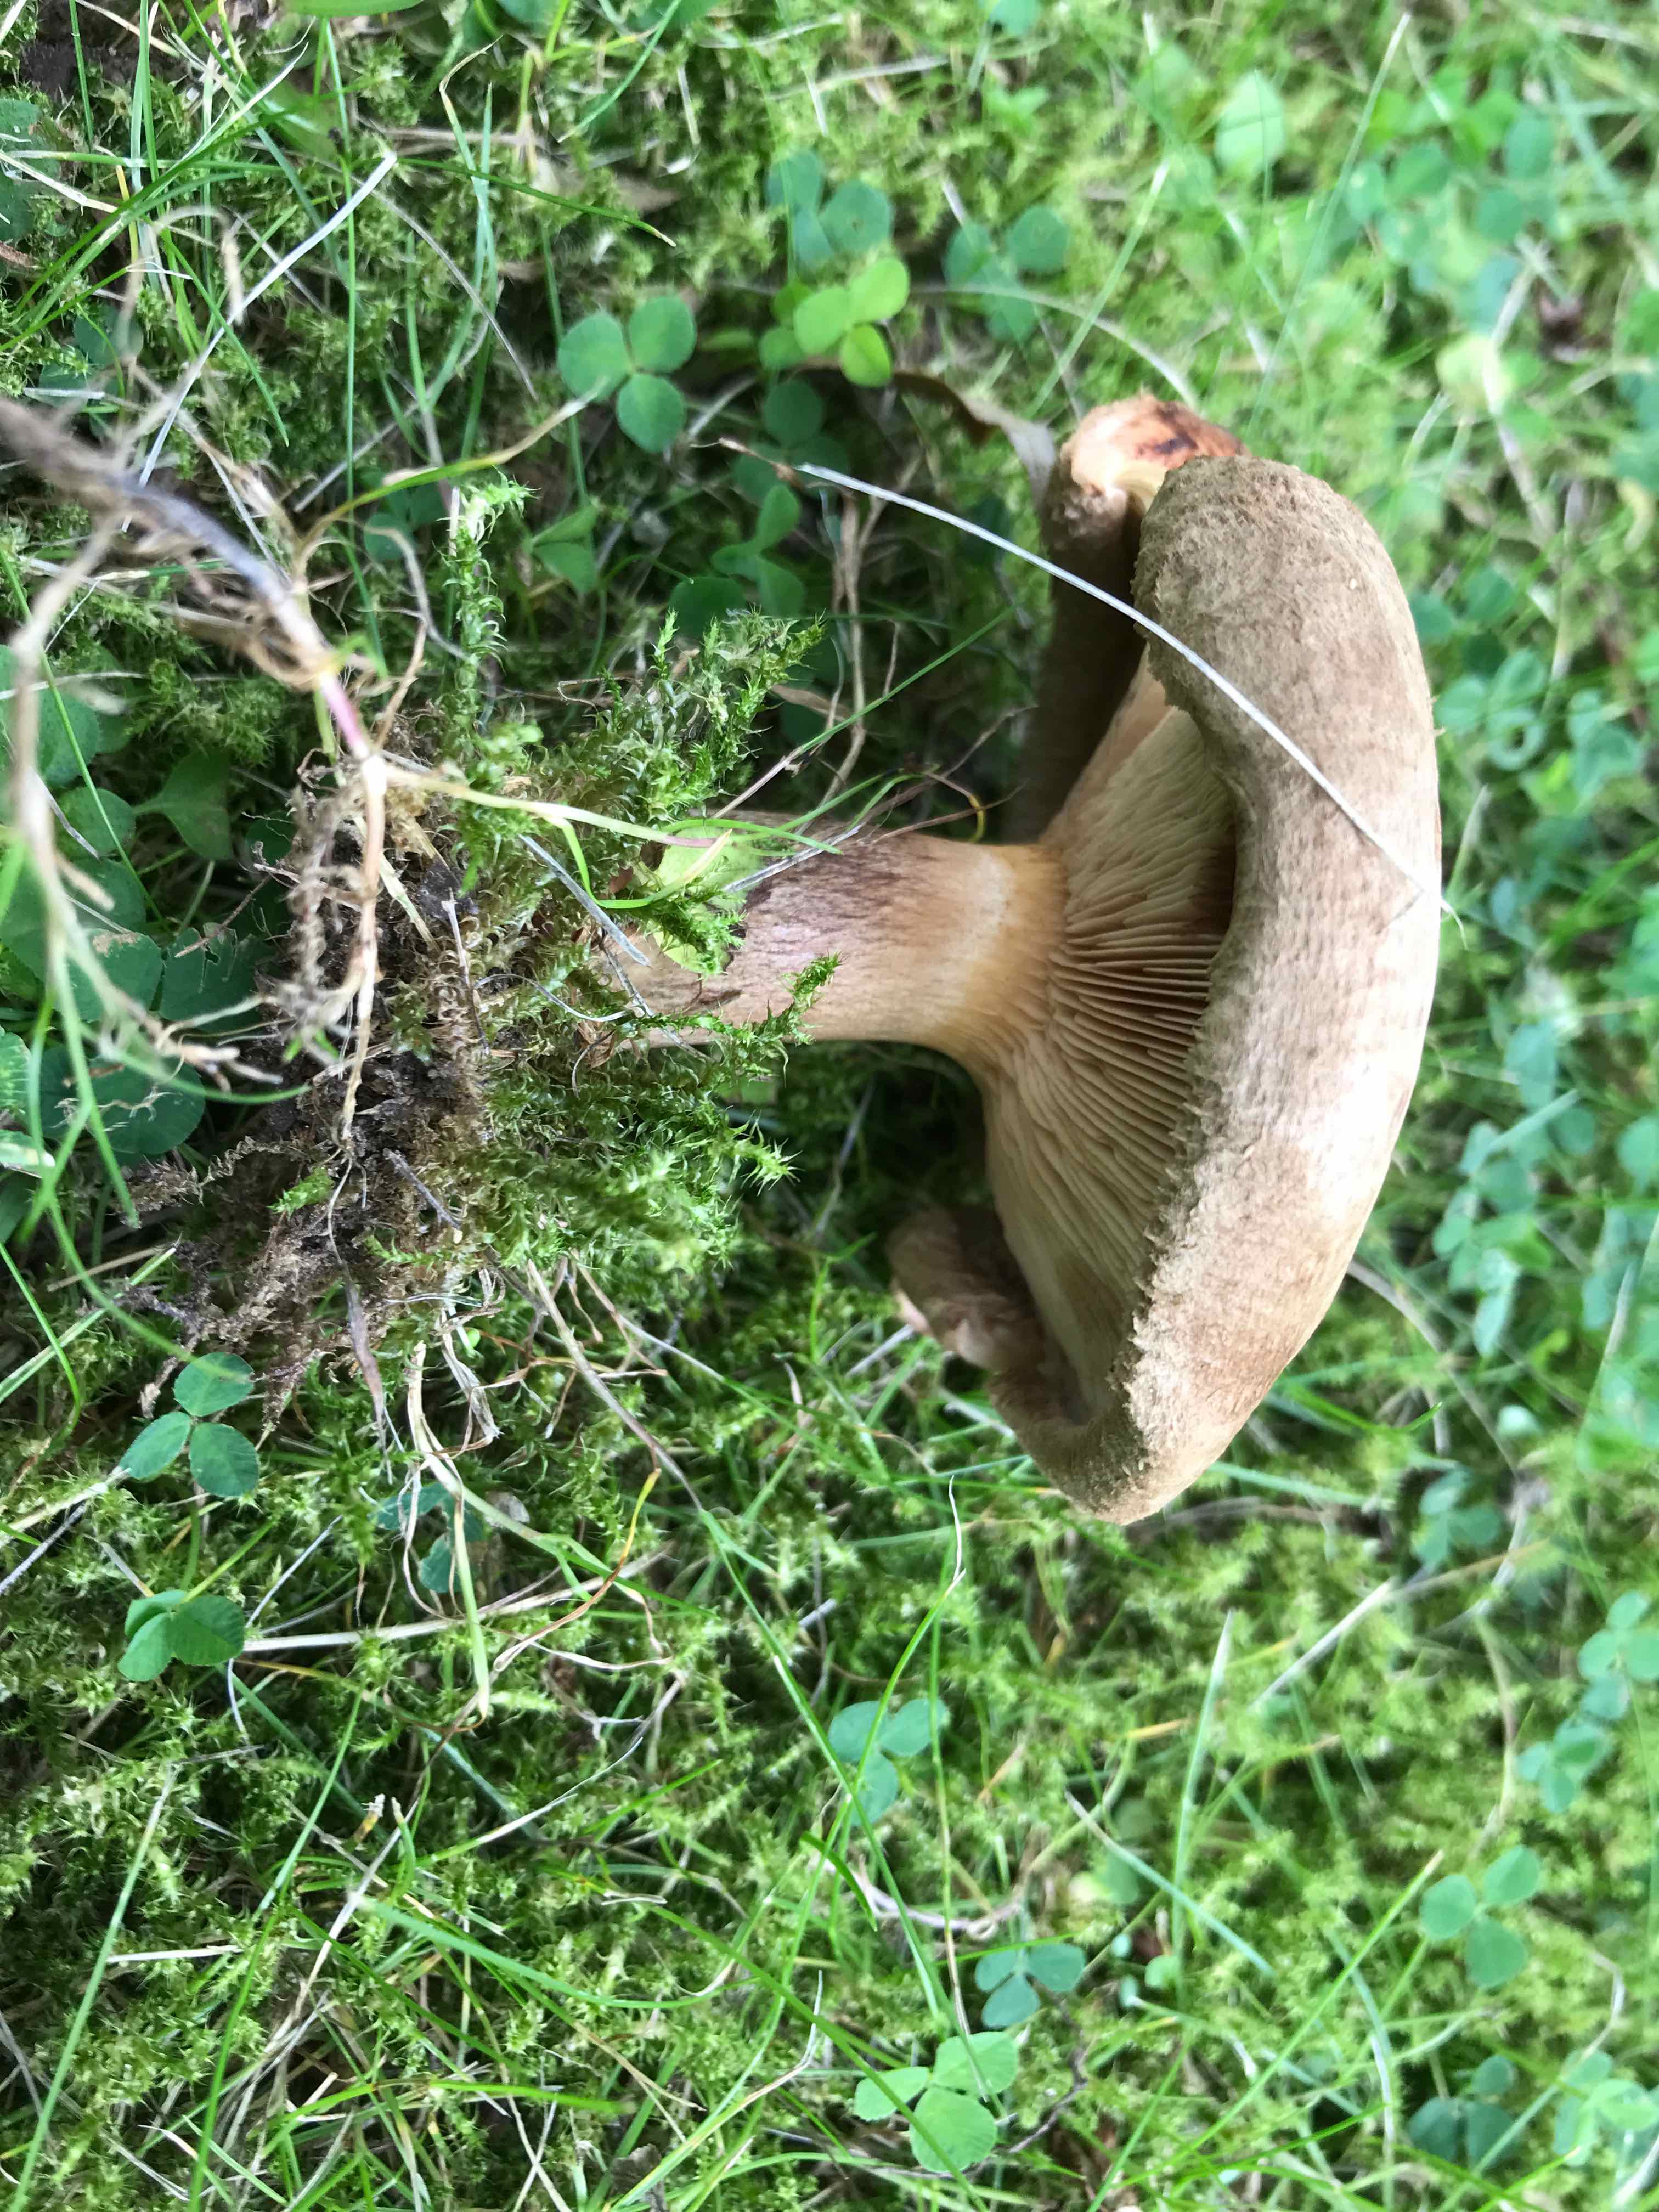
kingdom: Fungi
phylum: Basidiomycota
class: Agaricomycetes
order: Boletales
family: Paxillaceae
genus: Paxillus
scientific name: Paxillus
